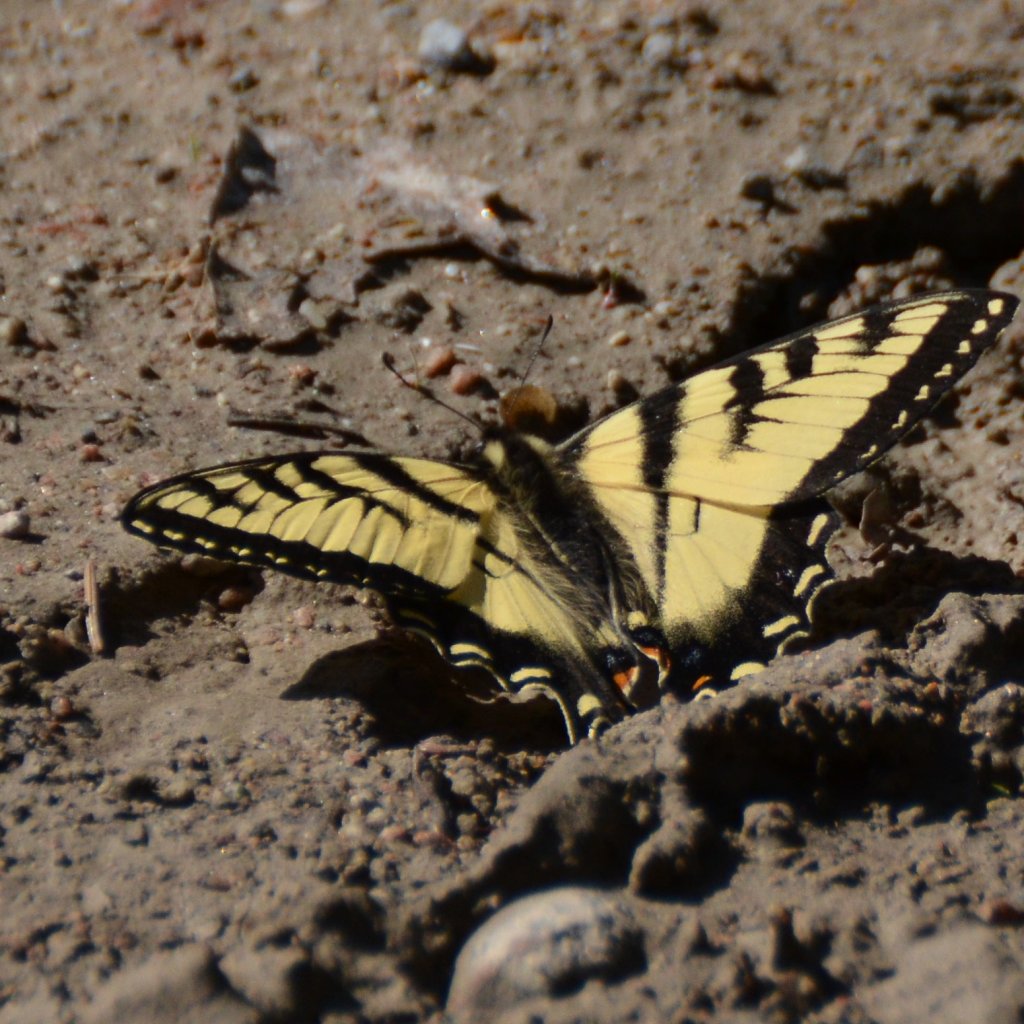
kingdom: Animalia
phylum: Arthropoda
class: Insecta
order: Lepidoptera
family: Papilionidae
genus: Pterourus
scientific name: Pterourus canadensis
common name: Canadian Tiger Swallowtail
